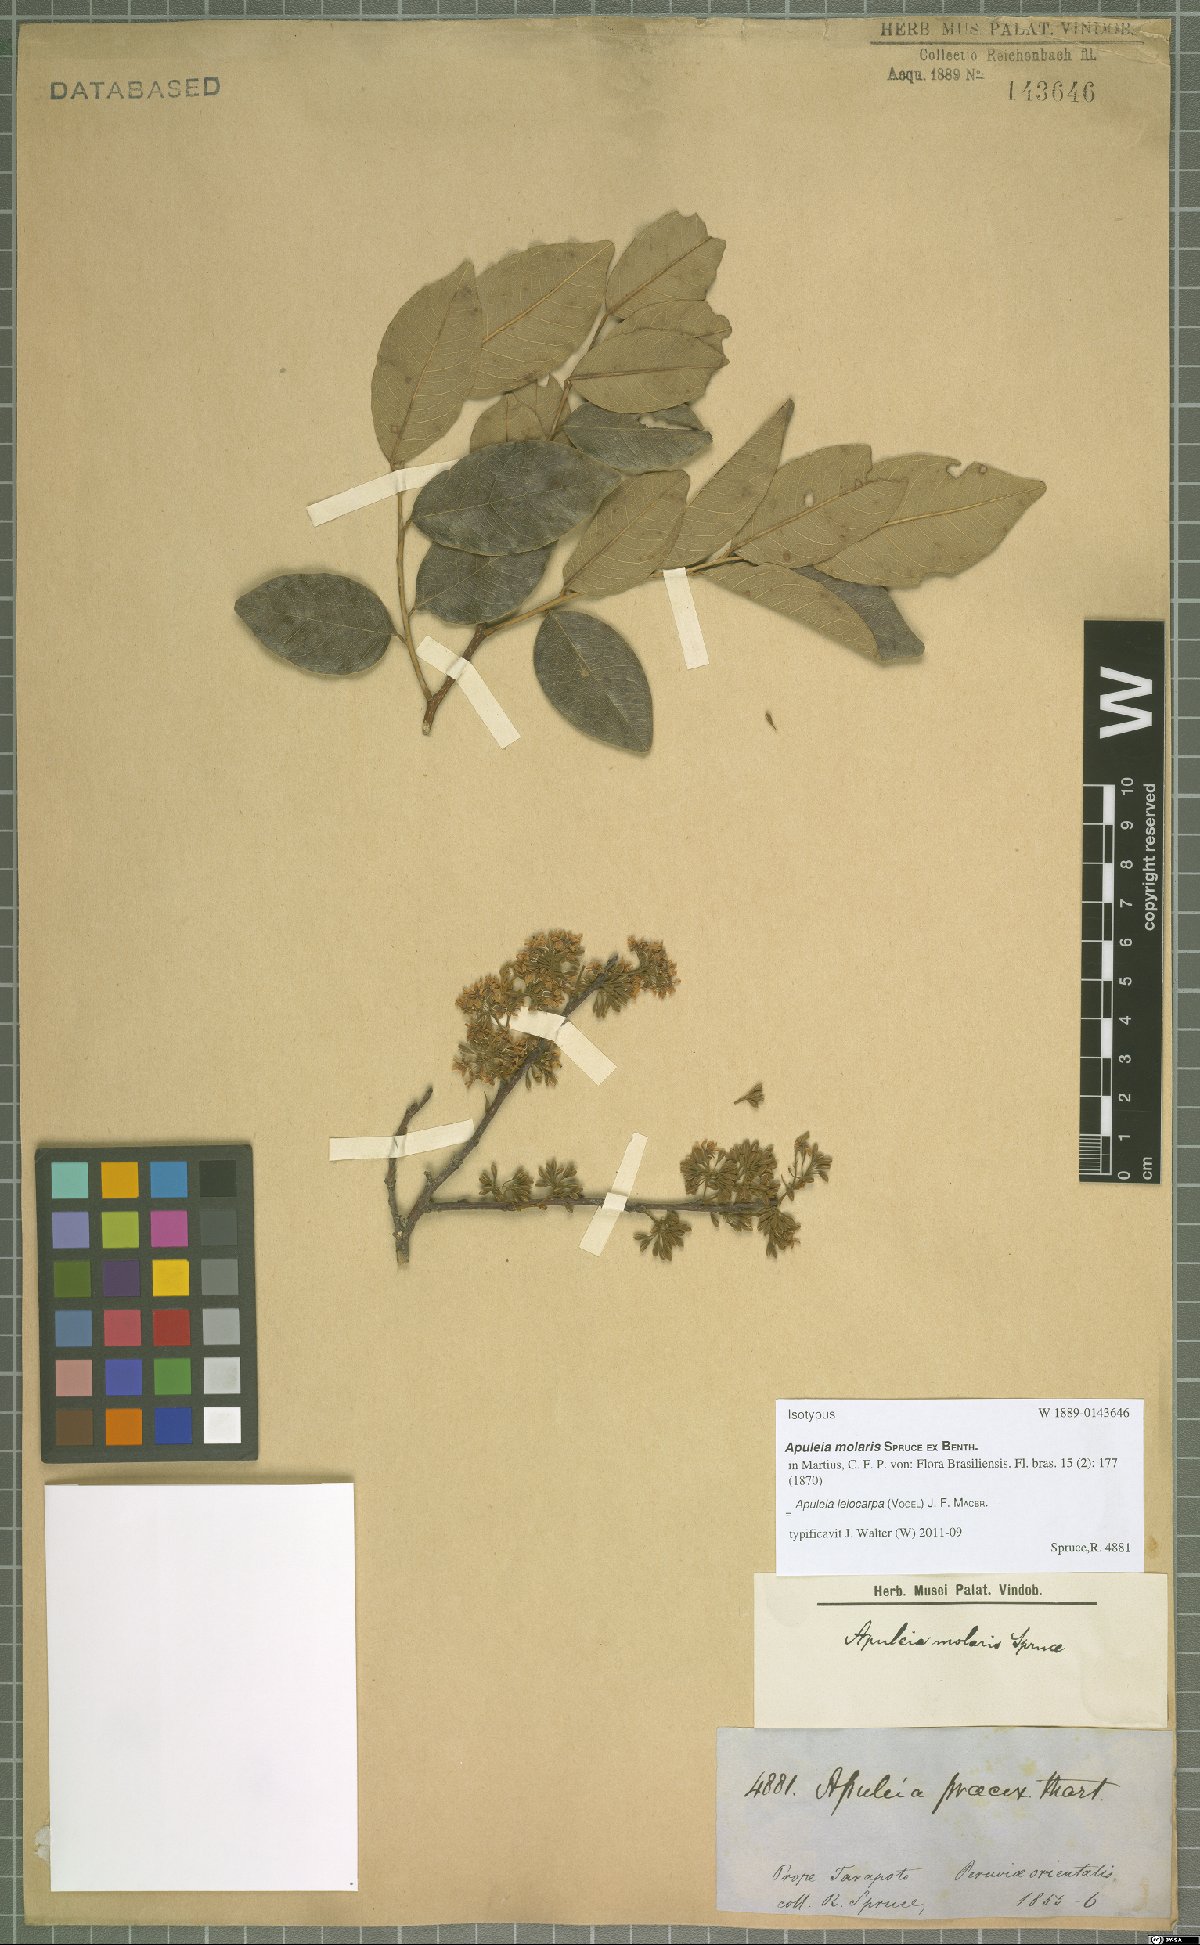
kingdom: Plantae
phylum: Tracheophyta
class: Magnoliopsida
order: Fabales
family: Fabaceae
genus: Apuleia
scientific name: Apuleia leiocarpa
